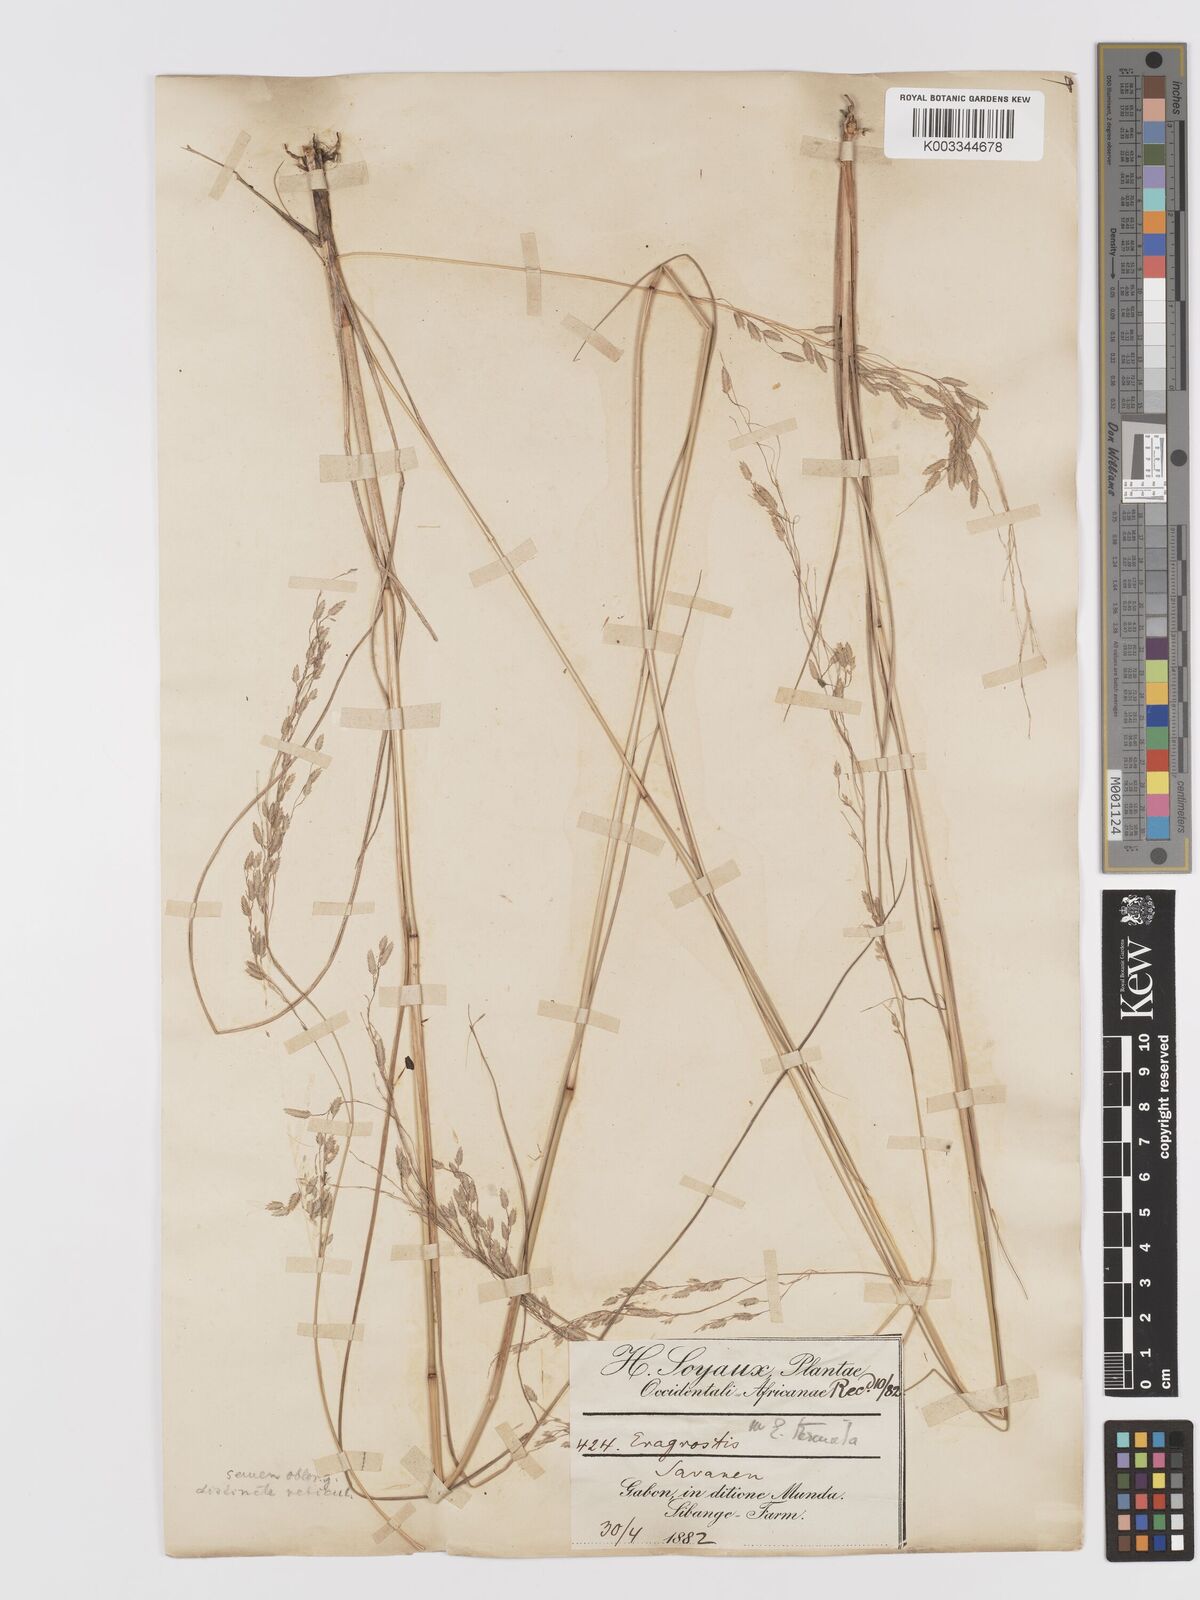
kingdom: Plantae
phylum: Tracheophyta
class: Liliopsida
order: Poales
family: Poaceae
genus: Eragrostis
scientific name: Eragrostis atrovirens
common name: Thalia lovegrass
